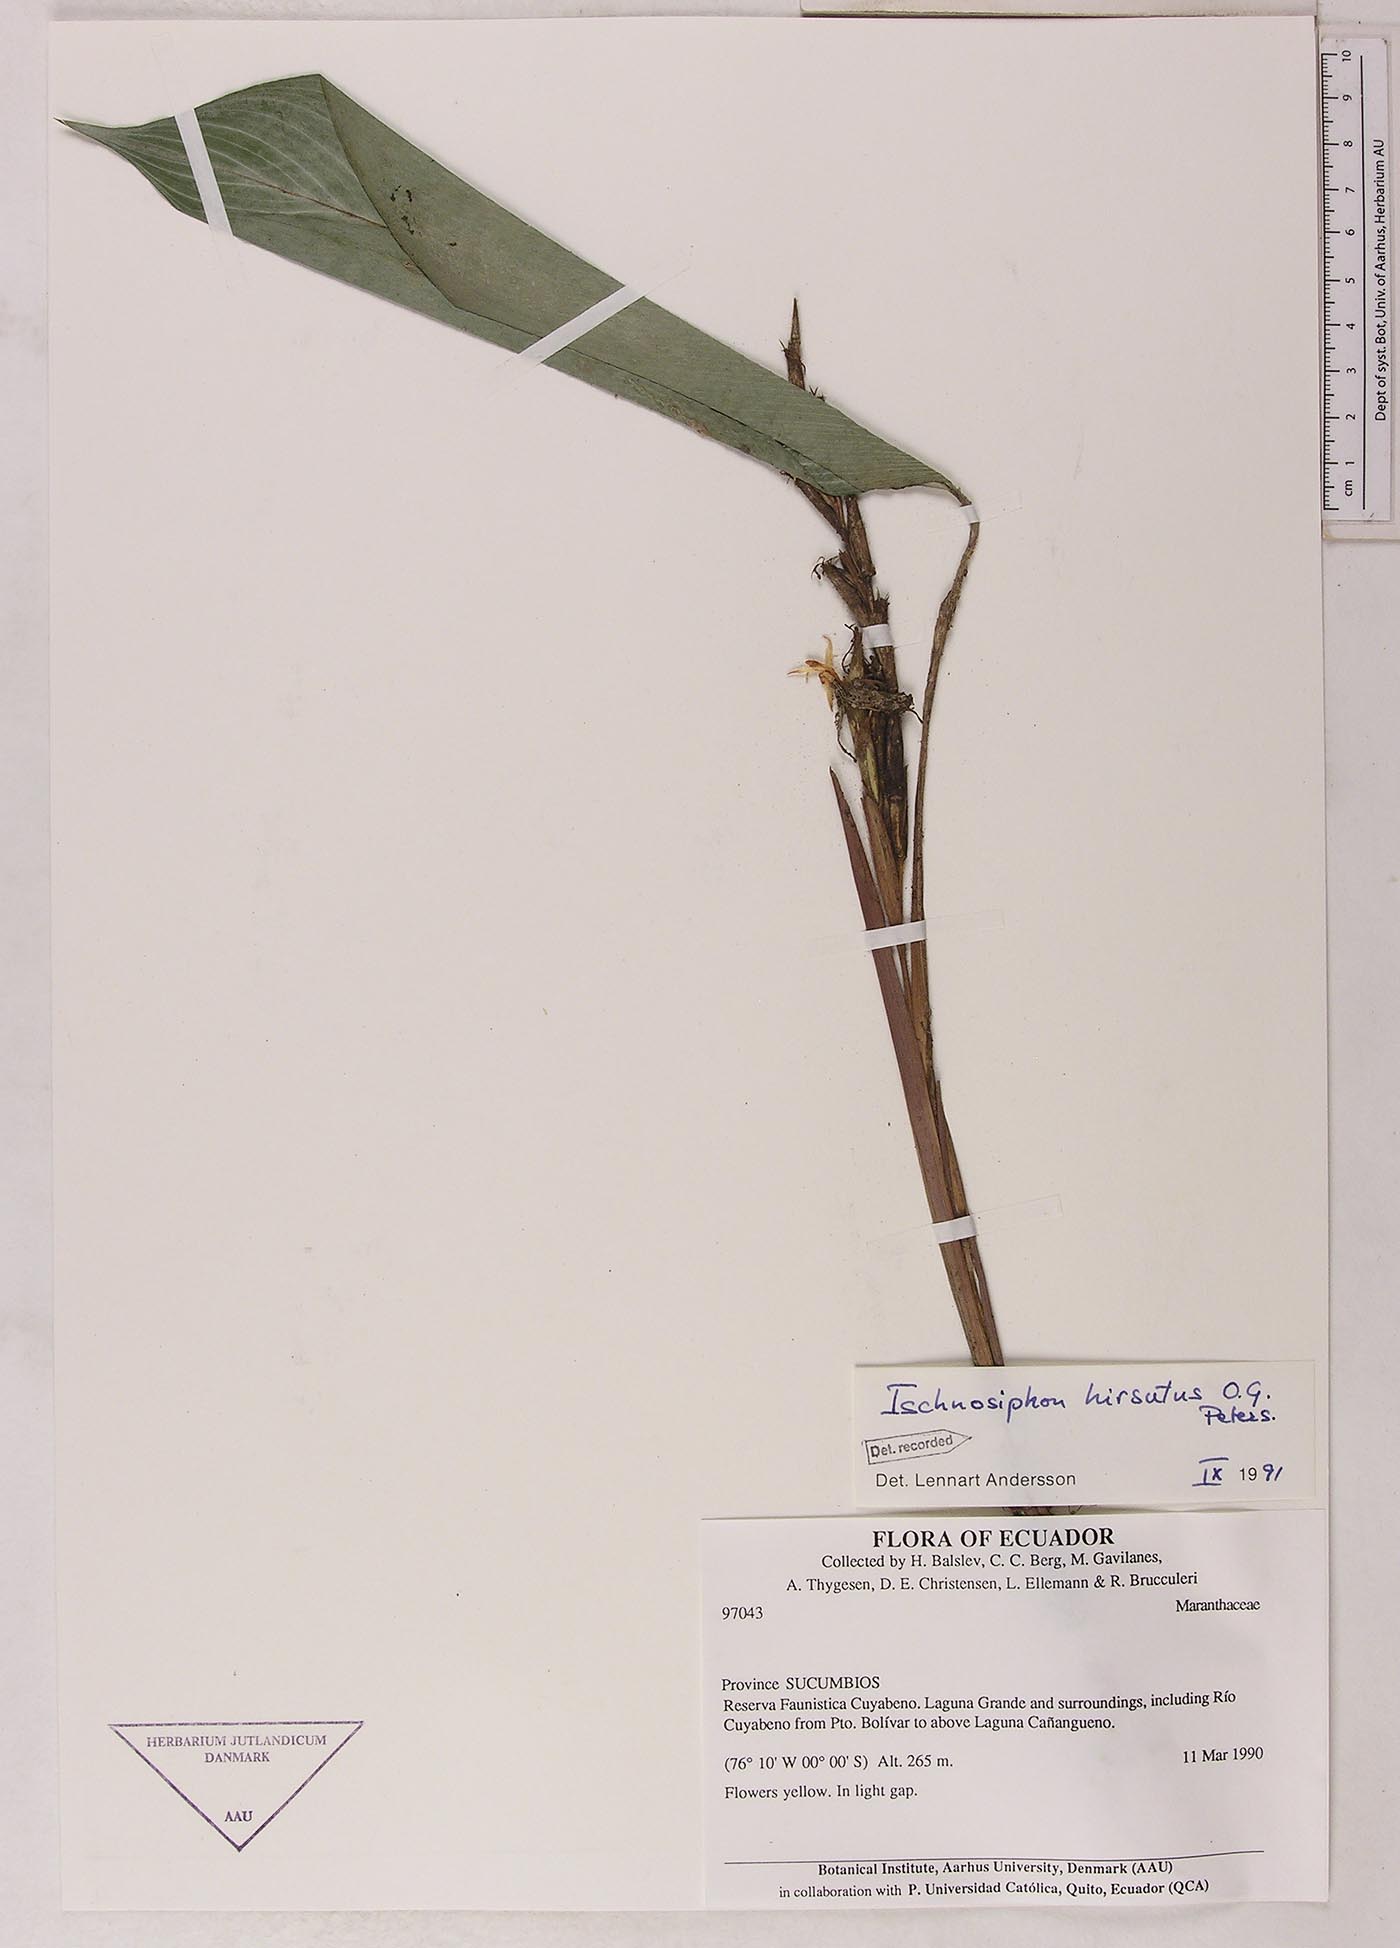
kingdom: Plantae
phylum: Tracheophyta
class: Liliopsida
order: Zingiberales
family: Marantaceae
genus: Ischnosiphon
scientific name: Ischnosiphon hirsutus
